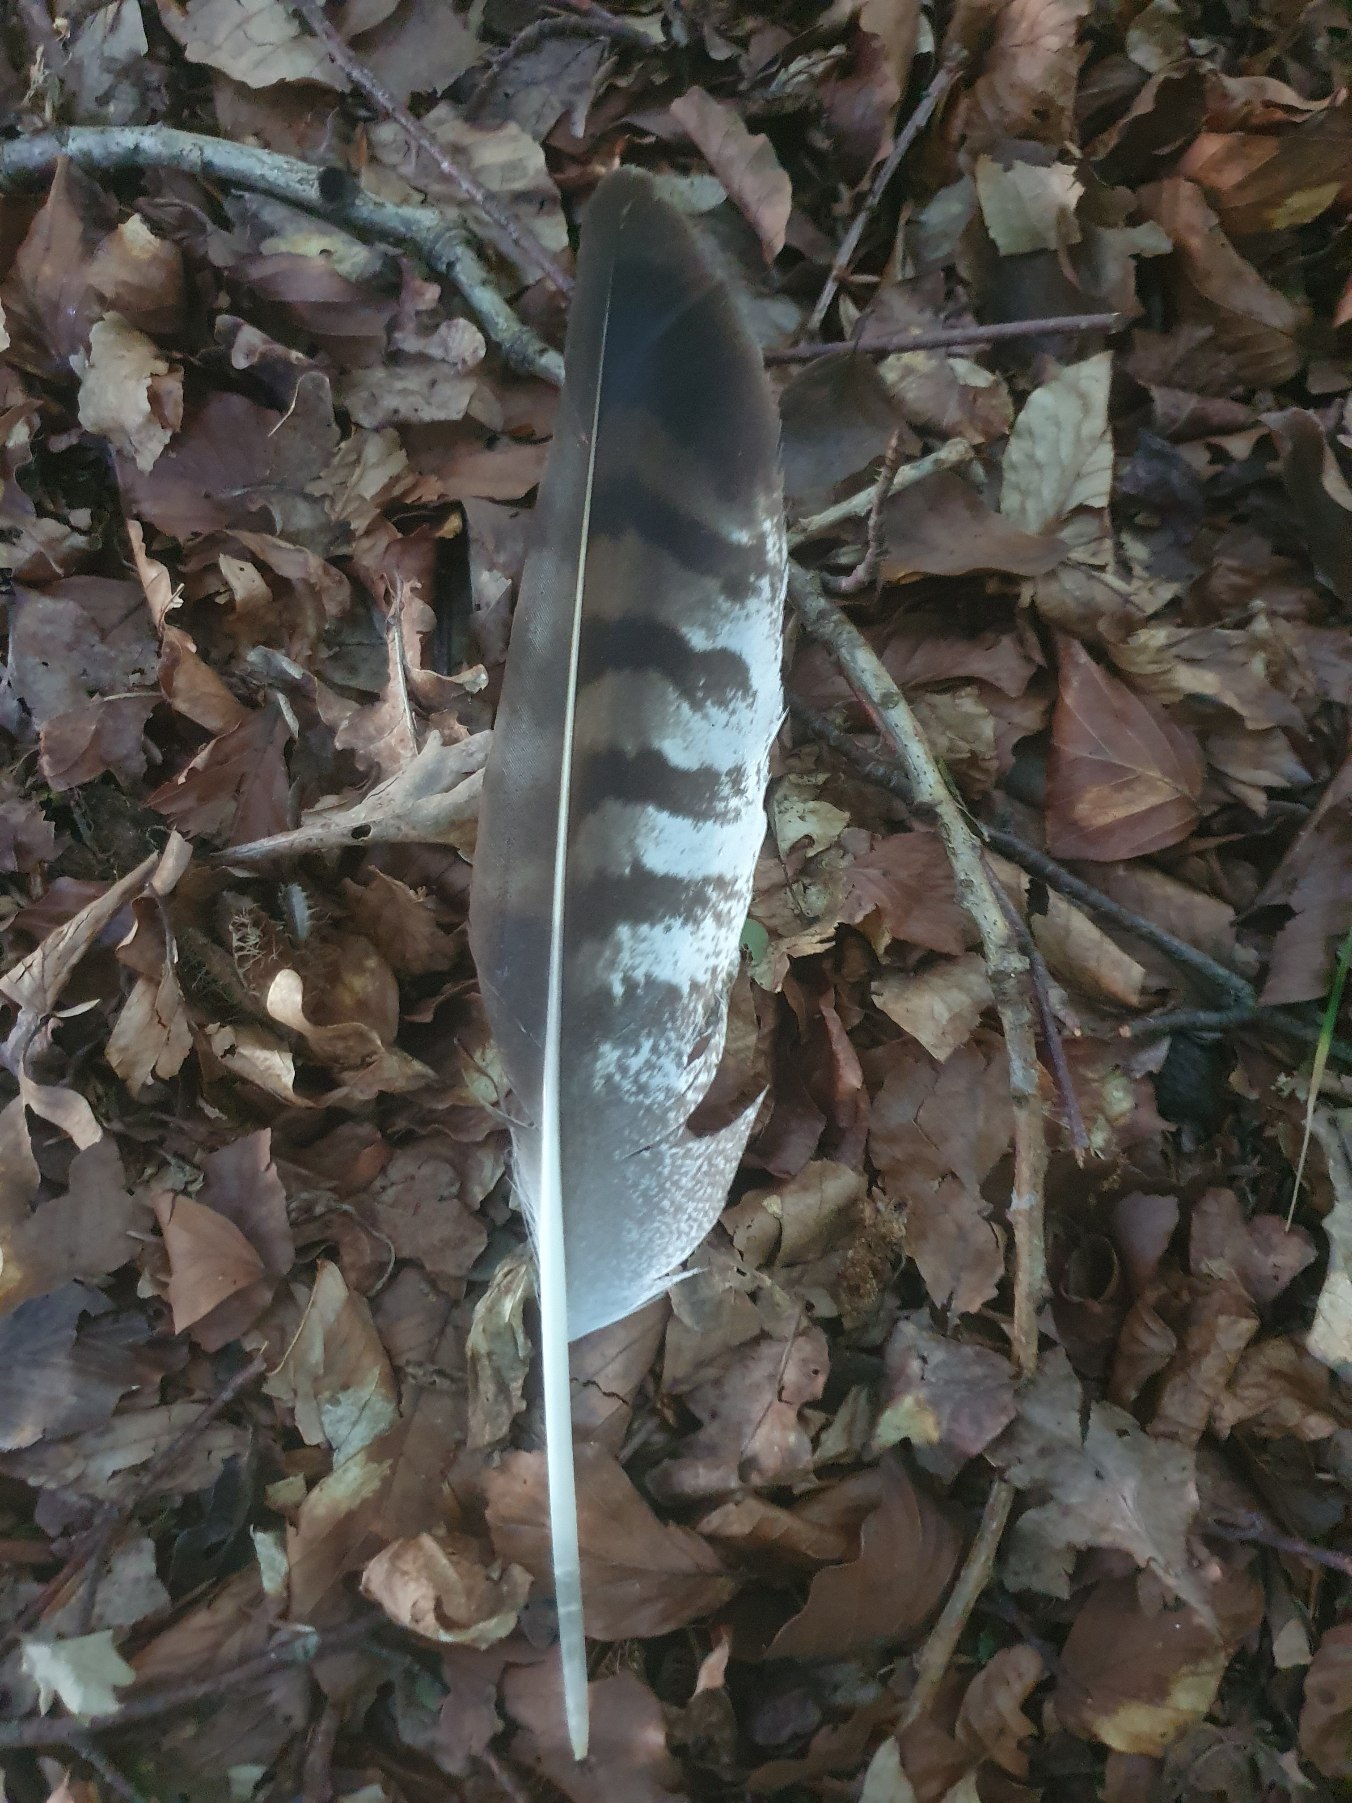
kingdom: Animalia
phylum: Chordata
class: Aves
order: Accipitriformes
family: Accipitridae
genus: Buteo
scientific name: Buteo buteo
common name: Musvåge
